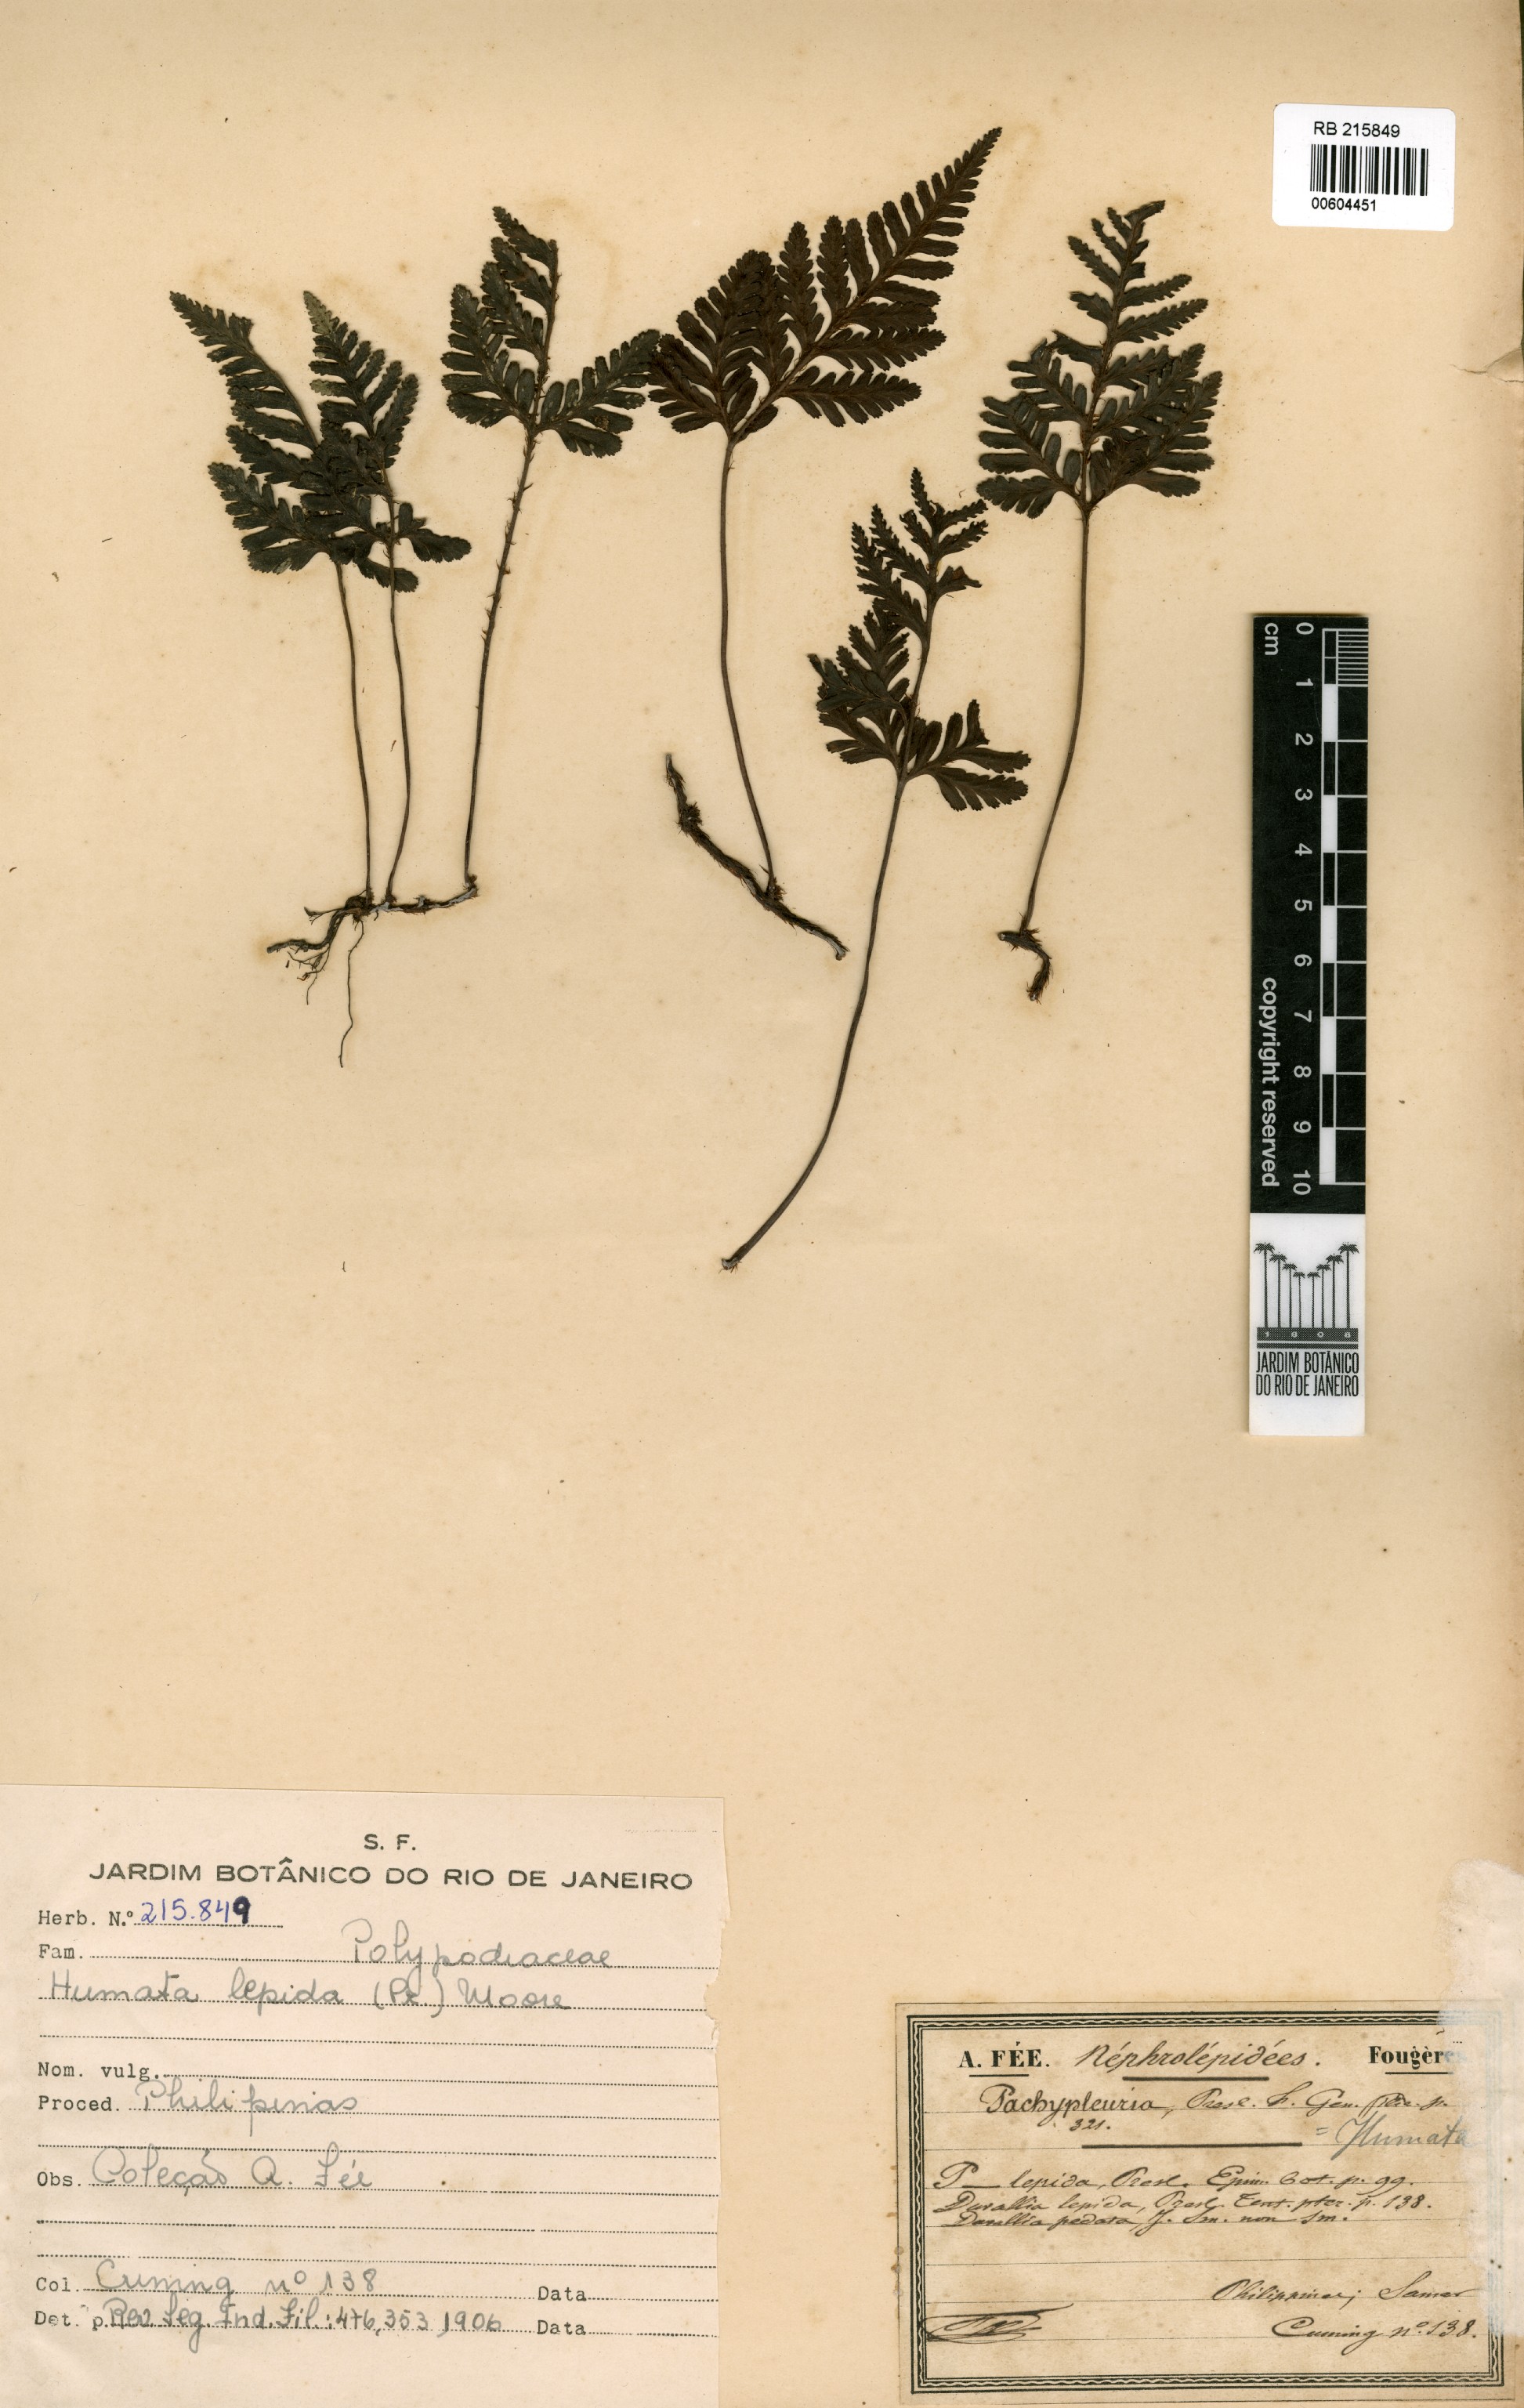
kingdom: Plantae
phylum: Tracheophyta
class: Polypodiopsida
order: Polypodiales
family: Davalliaceae
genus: Davallia
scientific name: Davallia graeffei
